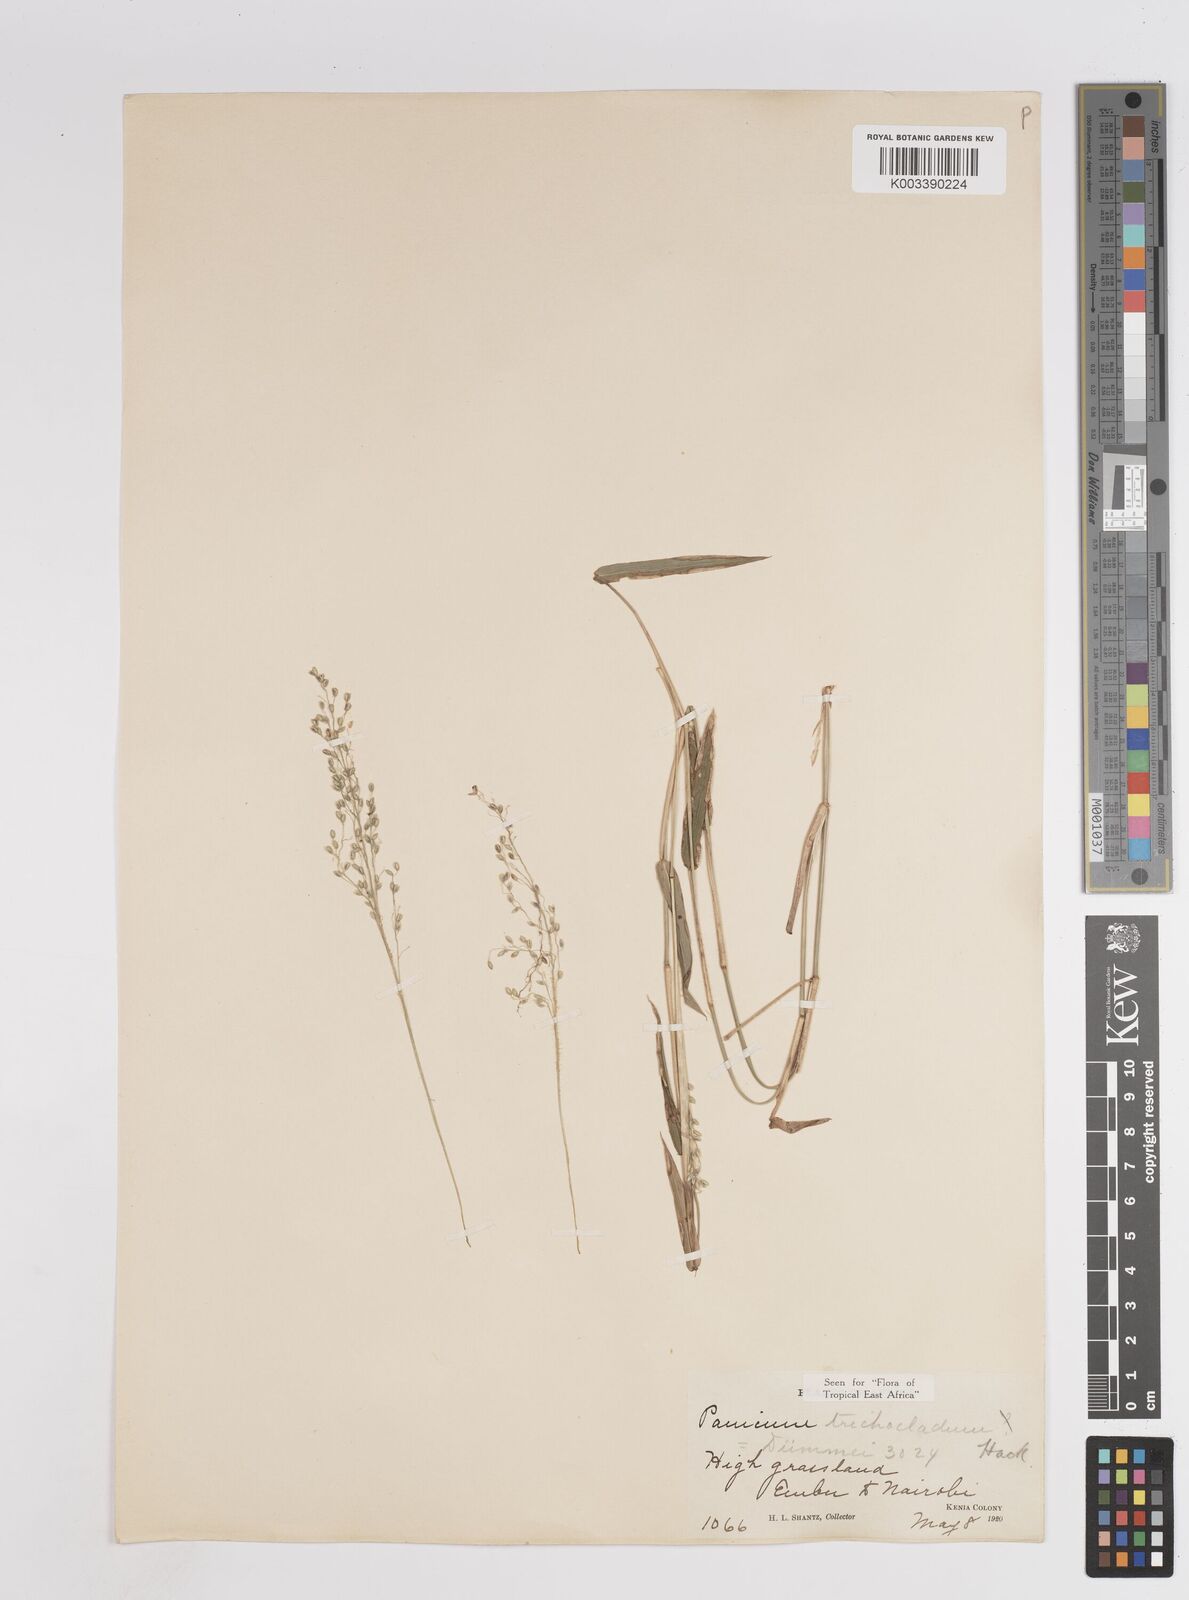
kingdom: Plantae
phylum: Tracheophyta
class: Liliopsida
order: Poales
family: Poaceae
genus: Panicum
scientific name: Panicum trichocladum
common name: Donkey grass
